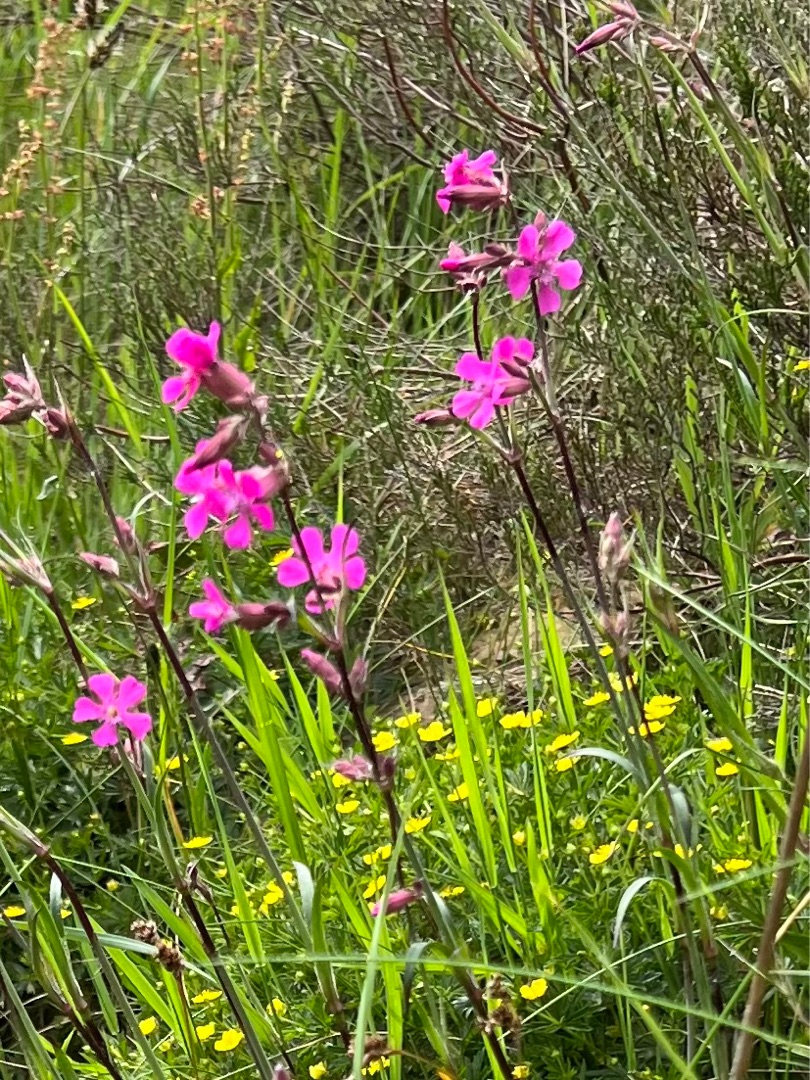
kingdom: Plantae
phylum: Tracheophyta
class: Magnoliopsida
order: Caryophyllales
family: Caryophyllaceae
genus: Viscaria
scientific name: Viscaria vulgaris
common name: Tjærenellike
